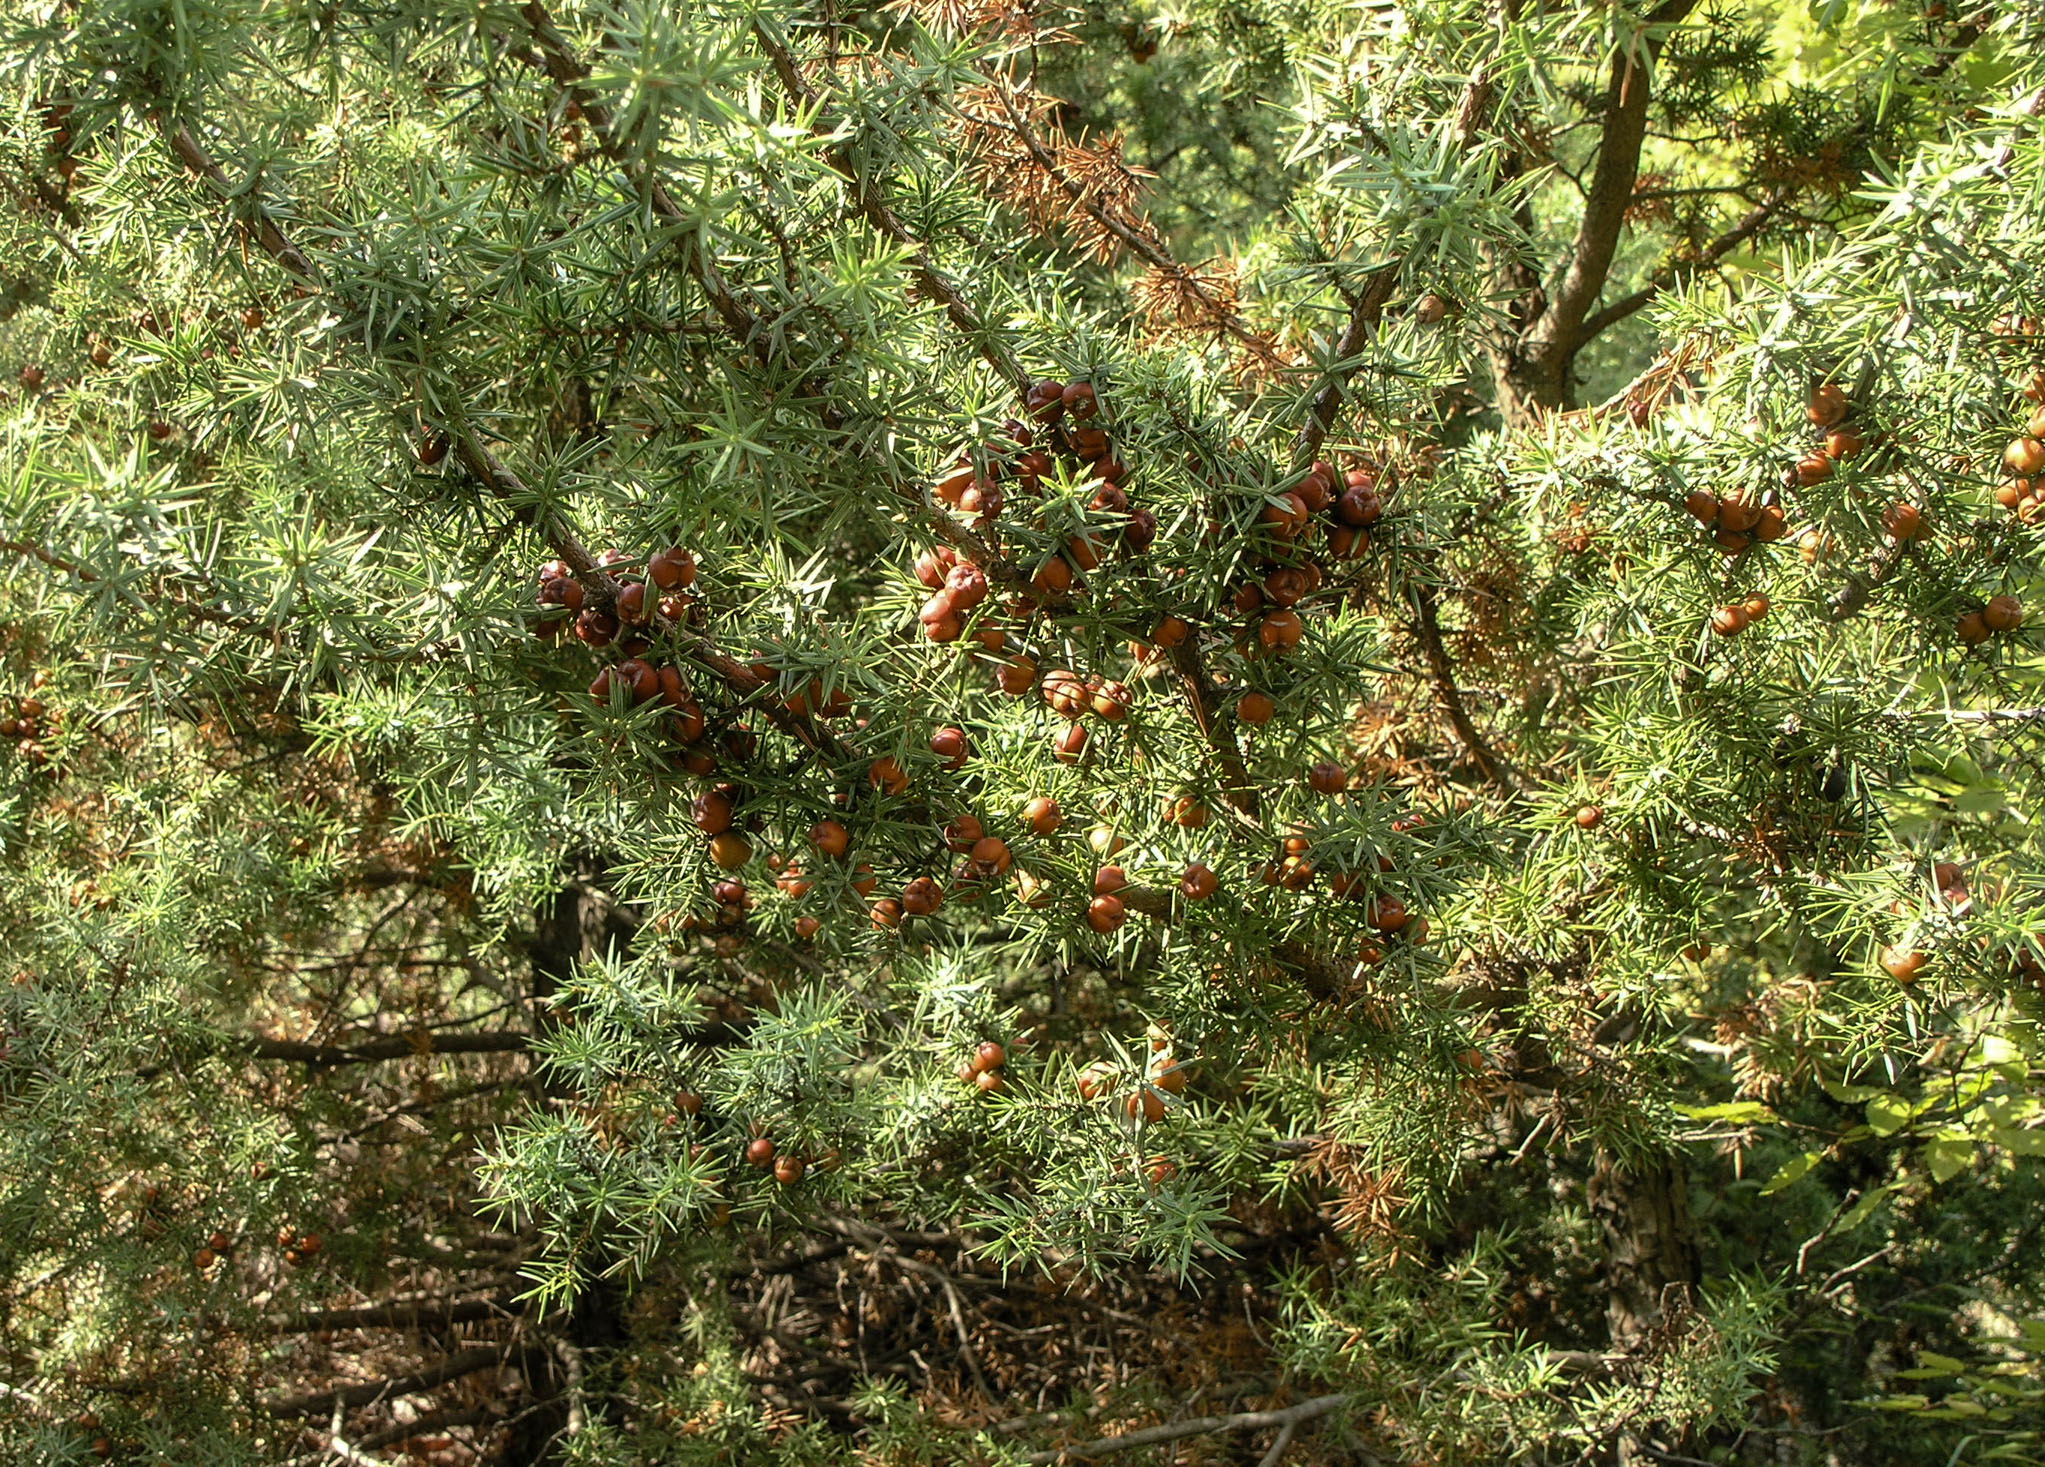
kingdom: Plantae
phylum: Tracheophyta
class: Pinopsida
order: Pinales
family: Cupressaceae
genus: Juniperus
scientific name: Juniperus oxycedrus
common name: Prickly juniper
